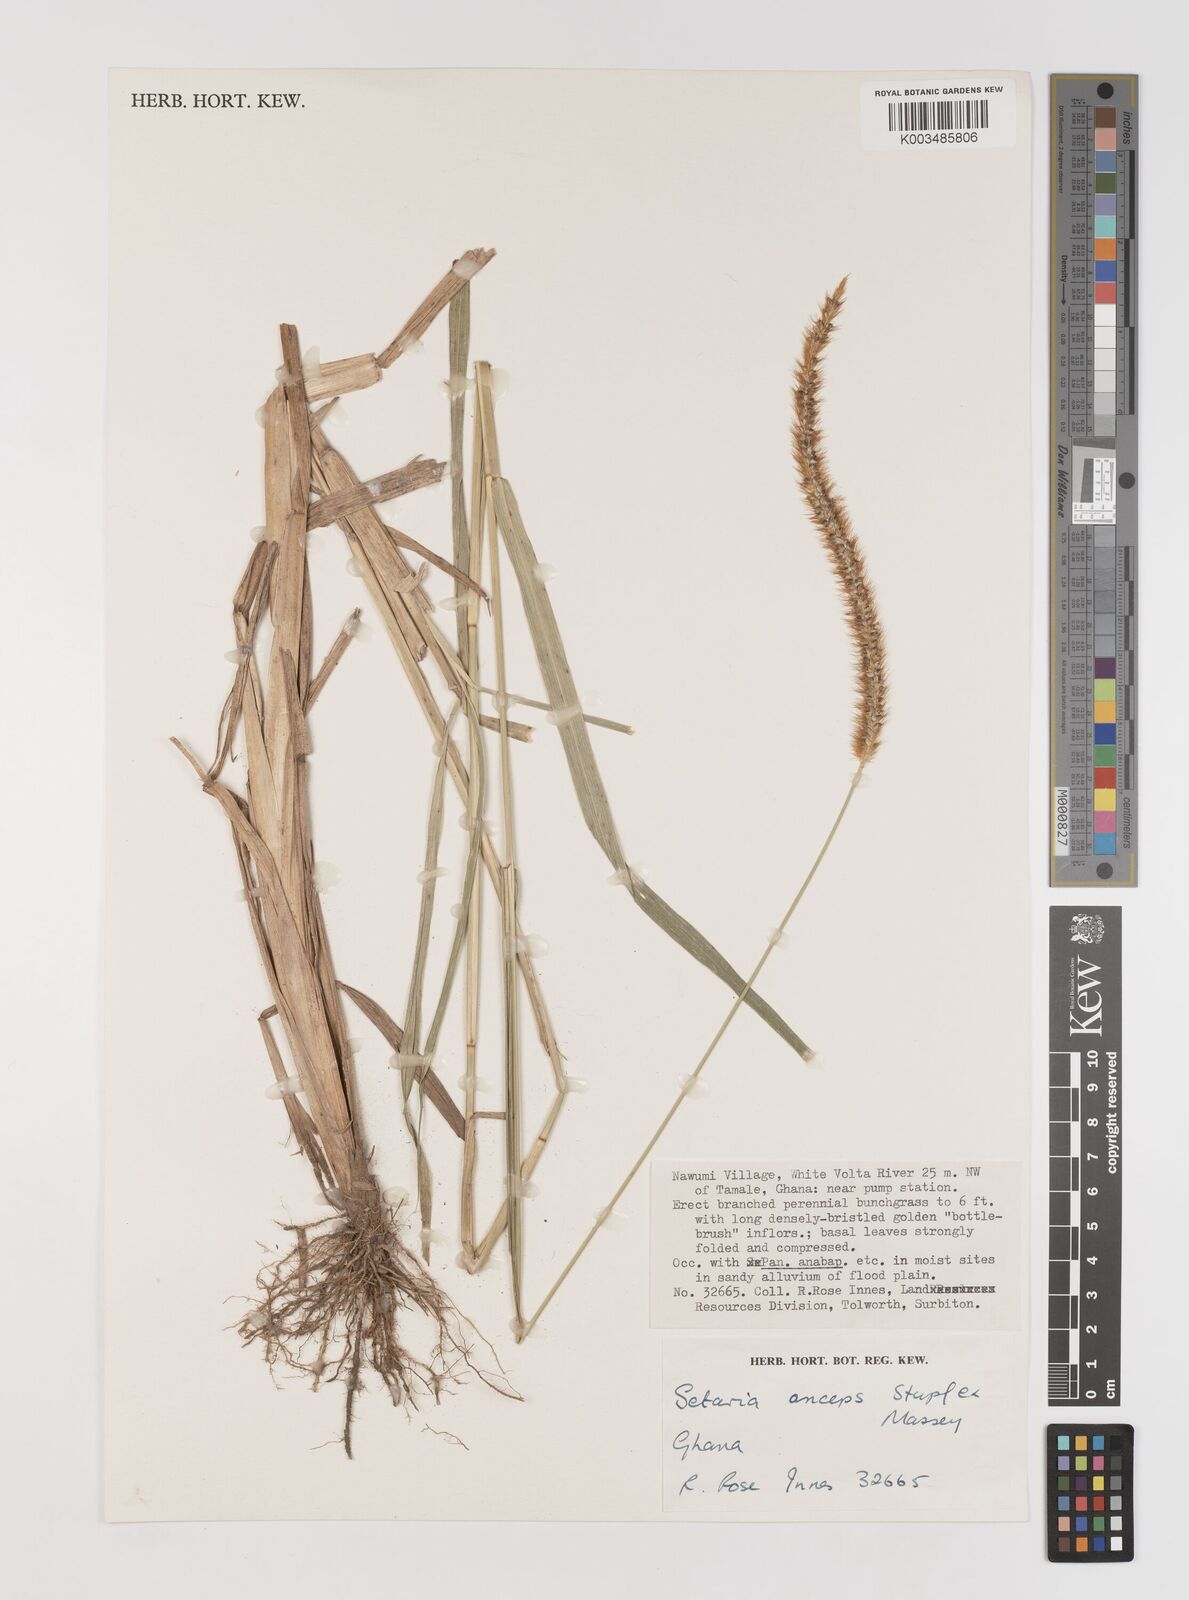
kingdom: Plantae
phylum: Tracheophyta
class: Liliopsida
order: Poales
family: Poaceae
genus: Setaria
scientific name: Setaria sphacelata
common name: African bristlegrass
